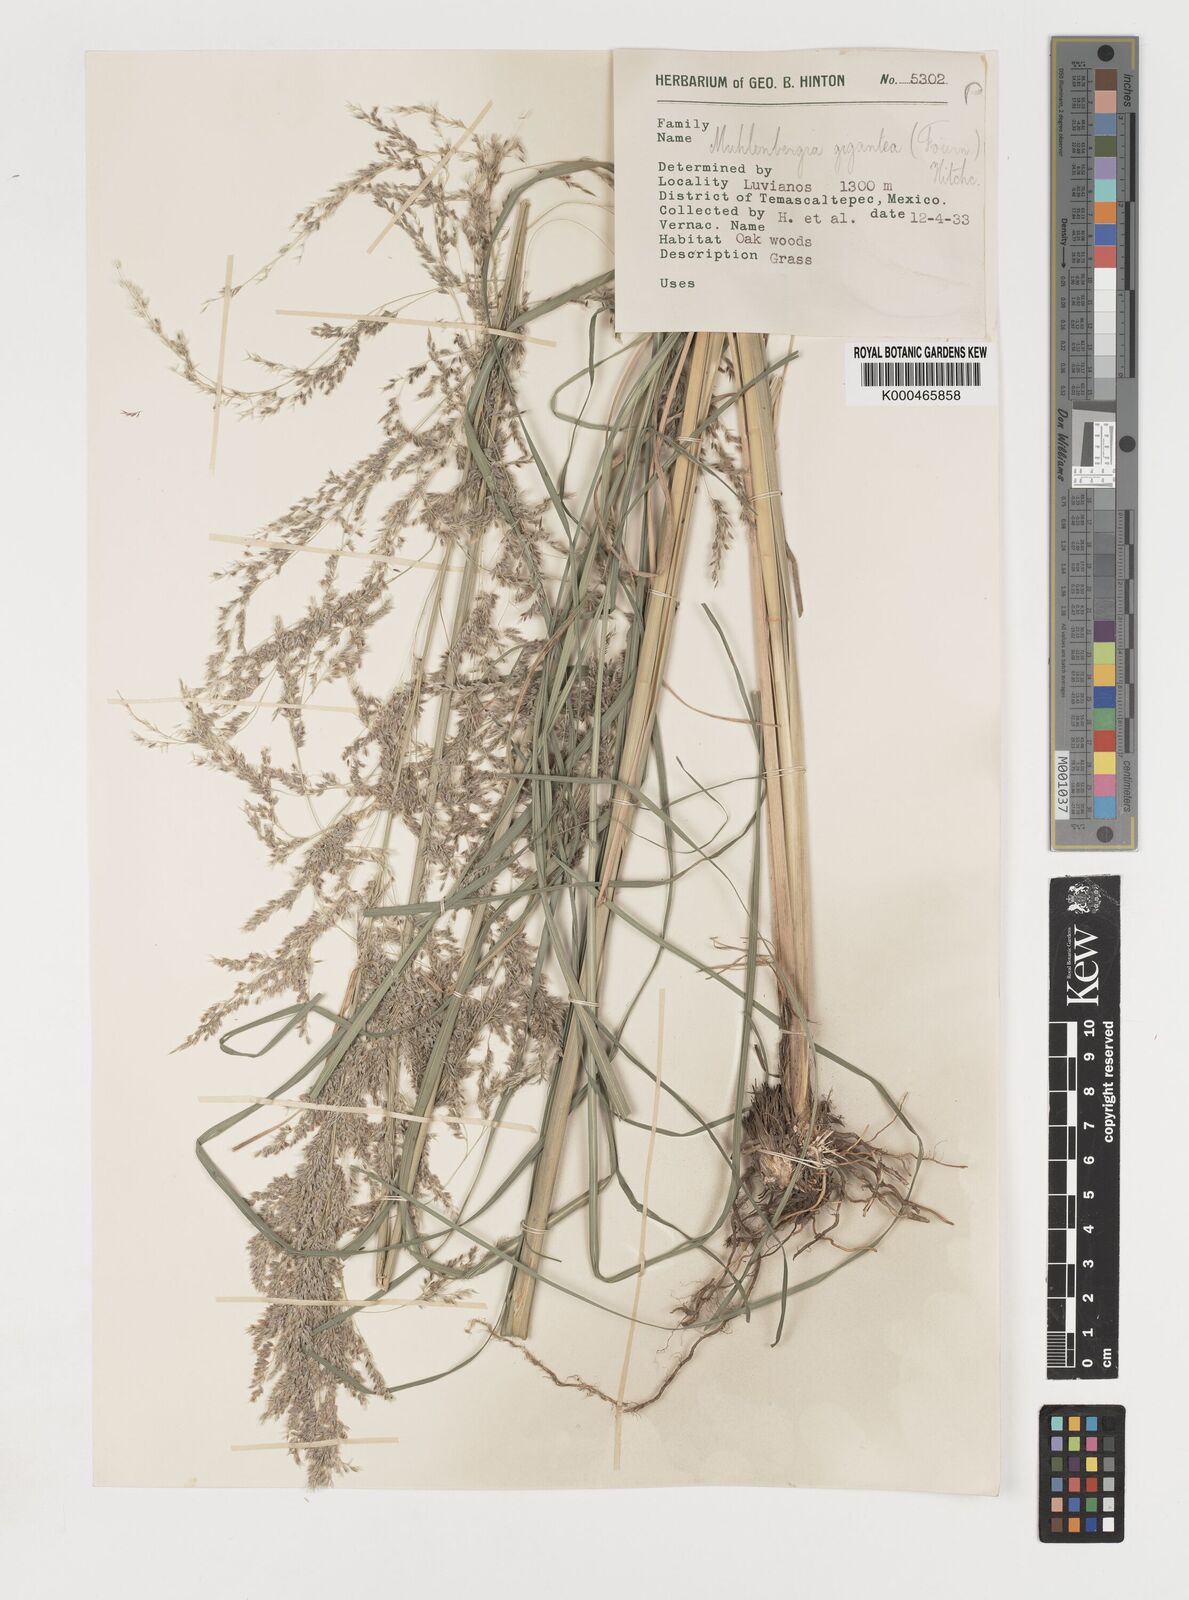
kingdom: Plantae
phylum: Tracheophyta
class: Liliopsida
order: Poales
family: Poaceae
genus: Muhlenbergia
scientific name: Muhlenbergia gigantea
